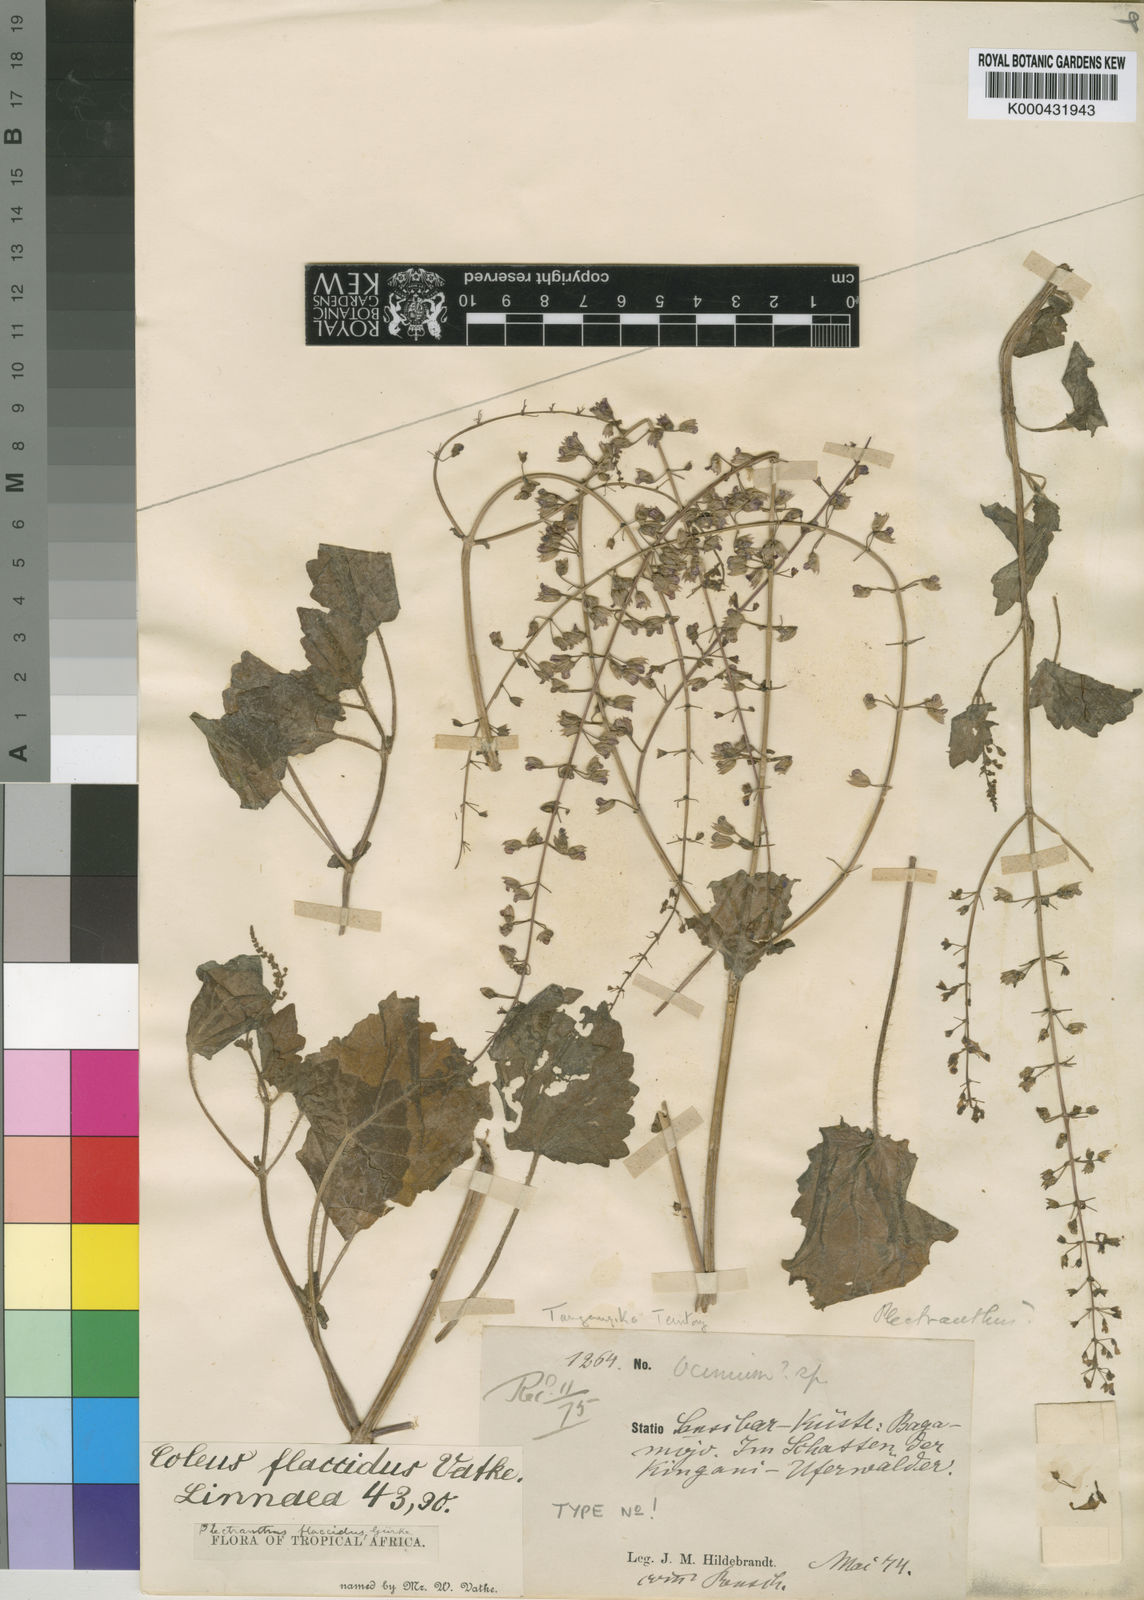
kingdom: Plantae
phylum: Tracheophyta
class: Magnoliopsida
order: Lamiales
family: Lamiaceae
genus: Plectranthus
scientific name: Plectranthus
